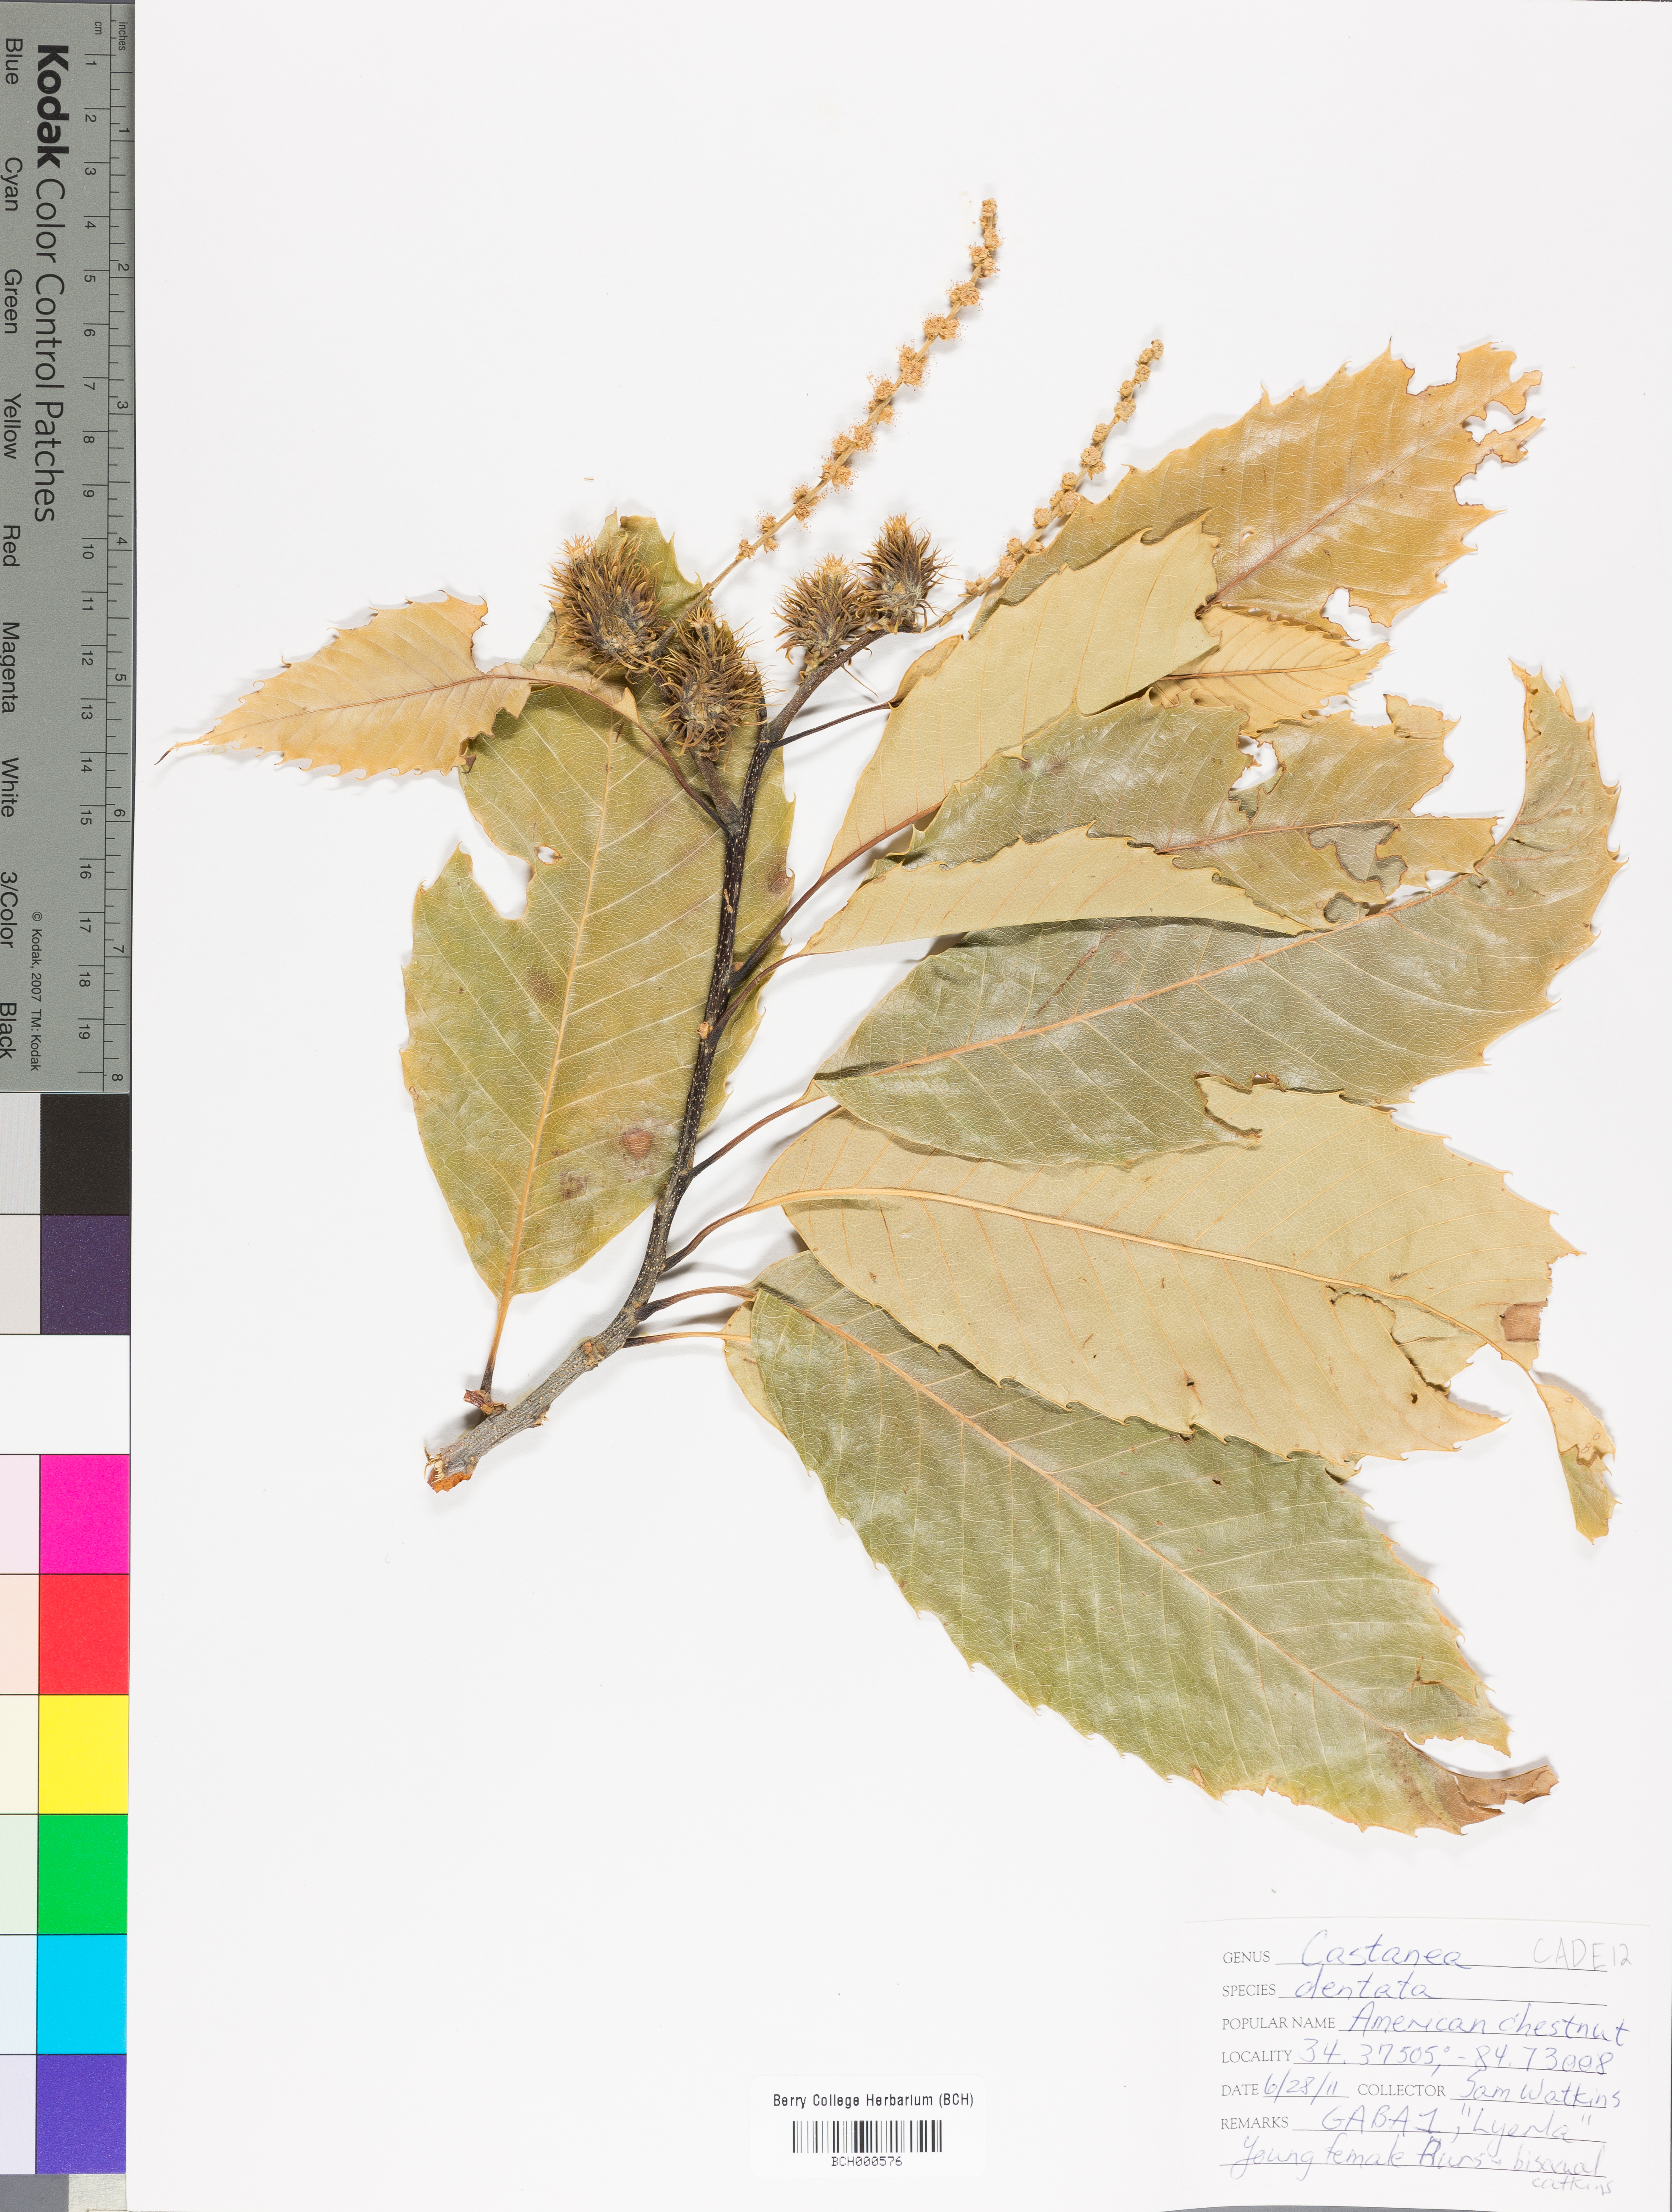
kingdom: Plantae
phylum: Tracheophyta
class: Magnoliopsida
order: Fagales
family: Fagaceae
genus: Castanea
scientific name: Castanea dentata
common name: American chestnut
